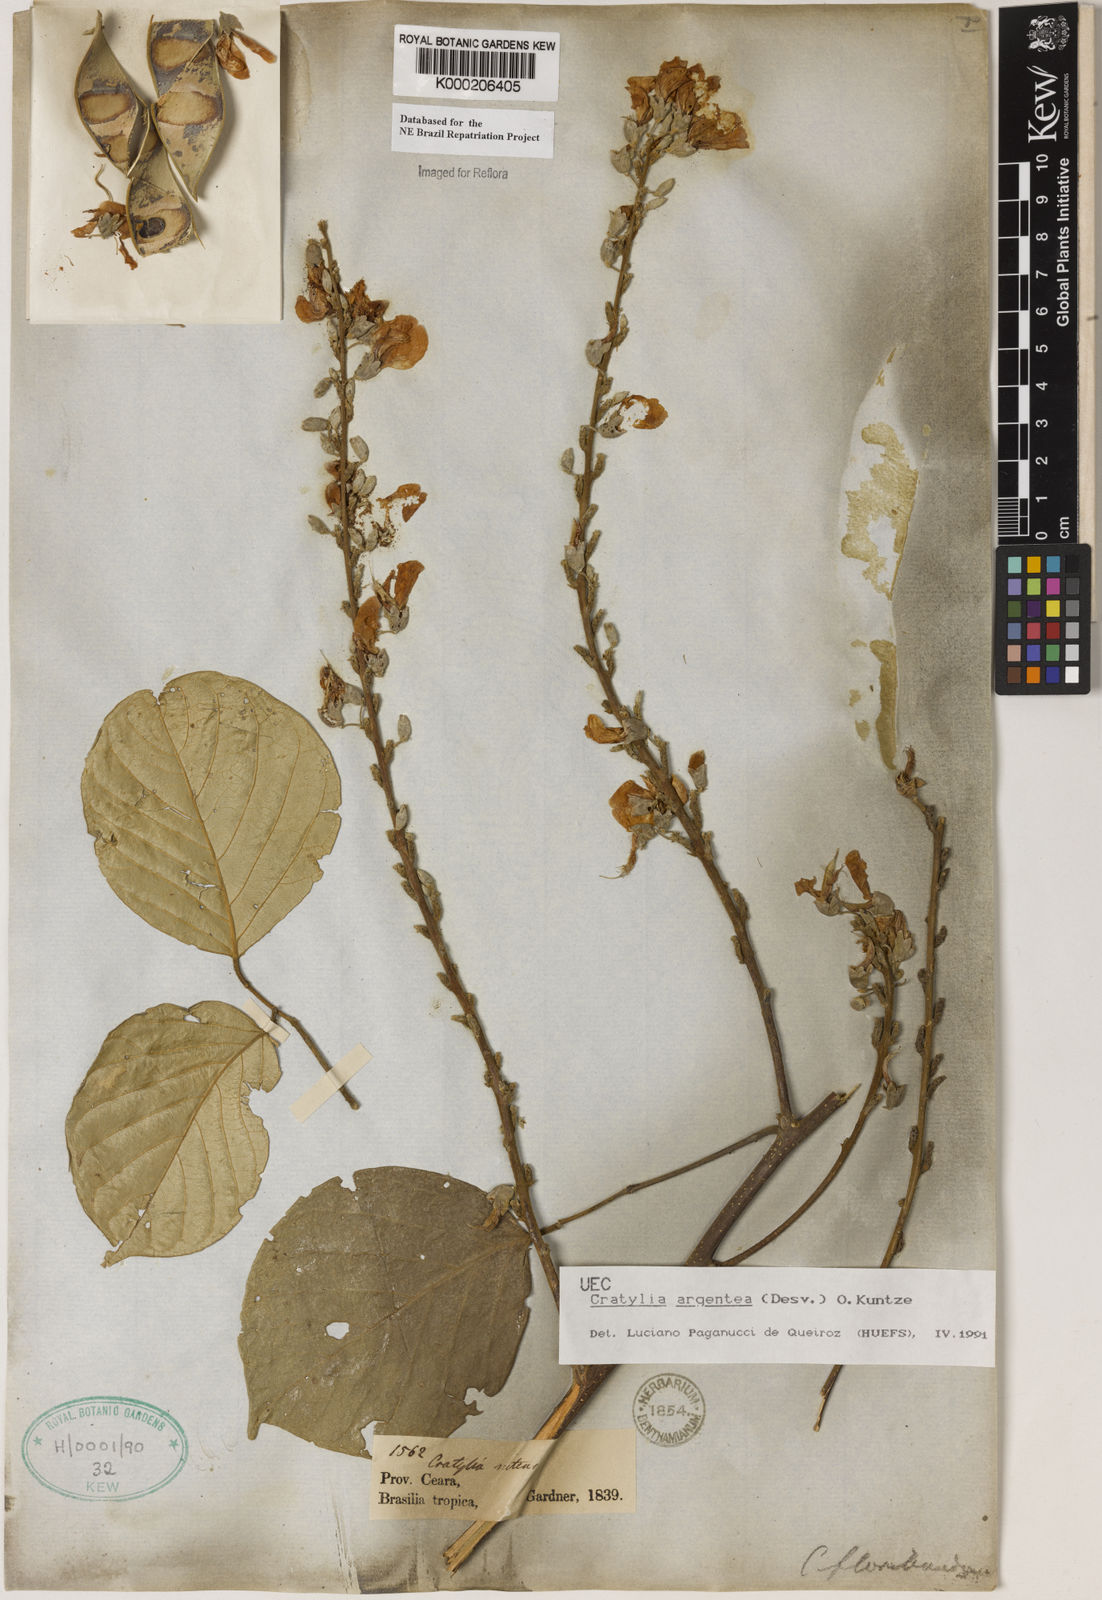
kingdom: Plantae
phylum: Tracheophyta
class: Magnoliopsida
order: Fabales
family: Fabaceae
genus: Cratylia
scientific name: Cratylia argentea
